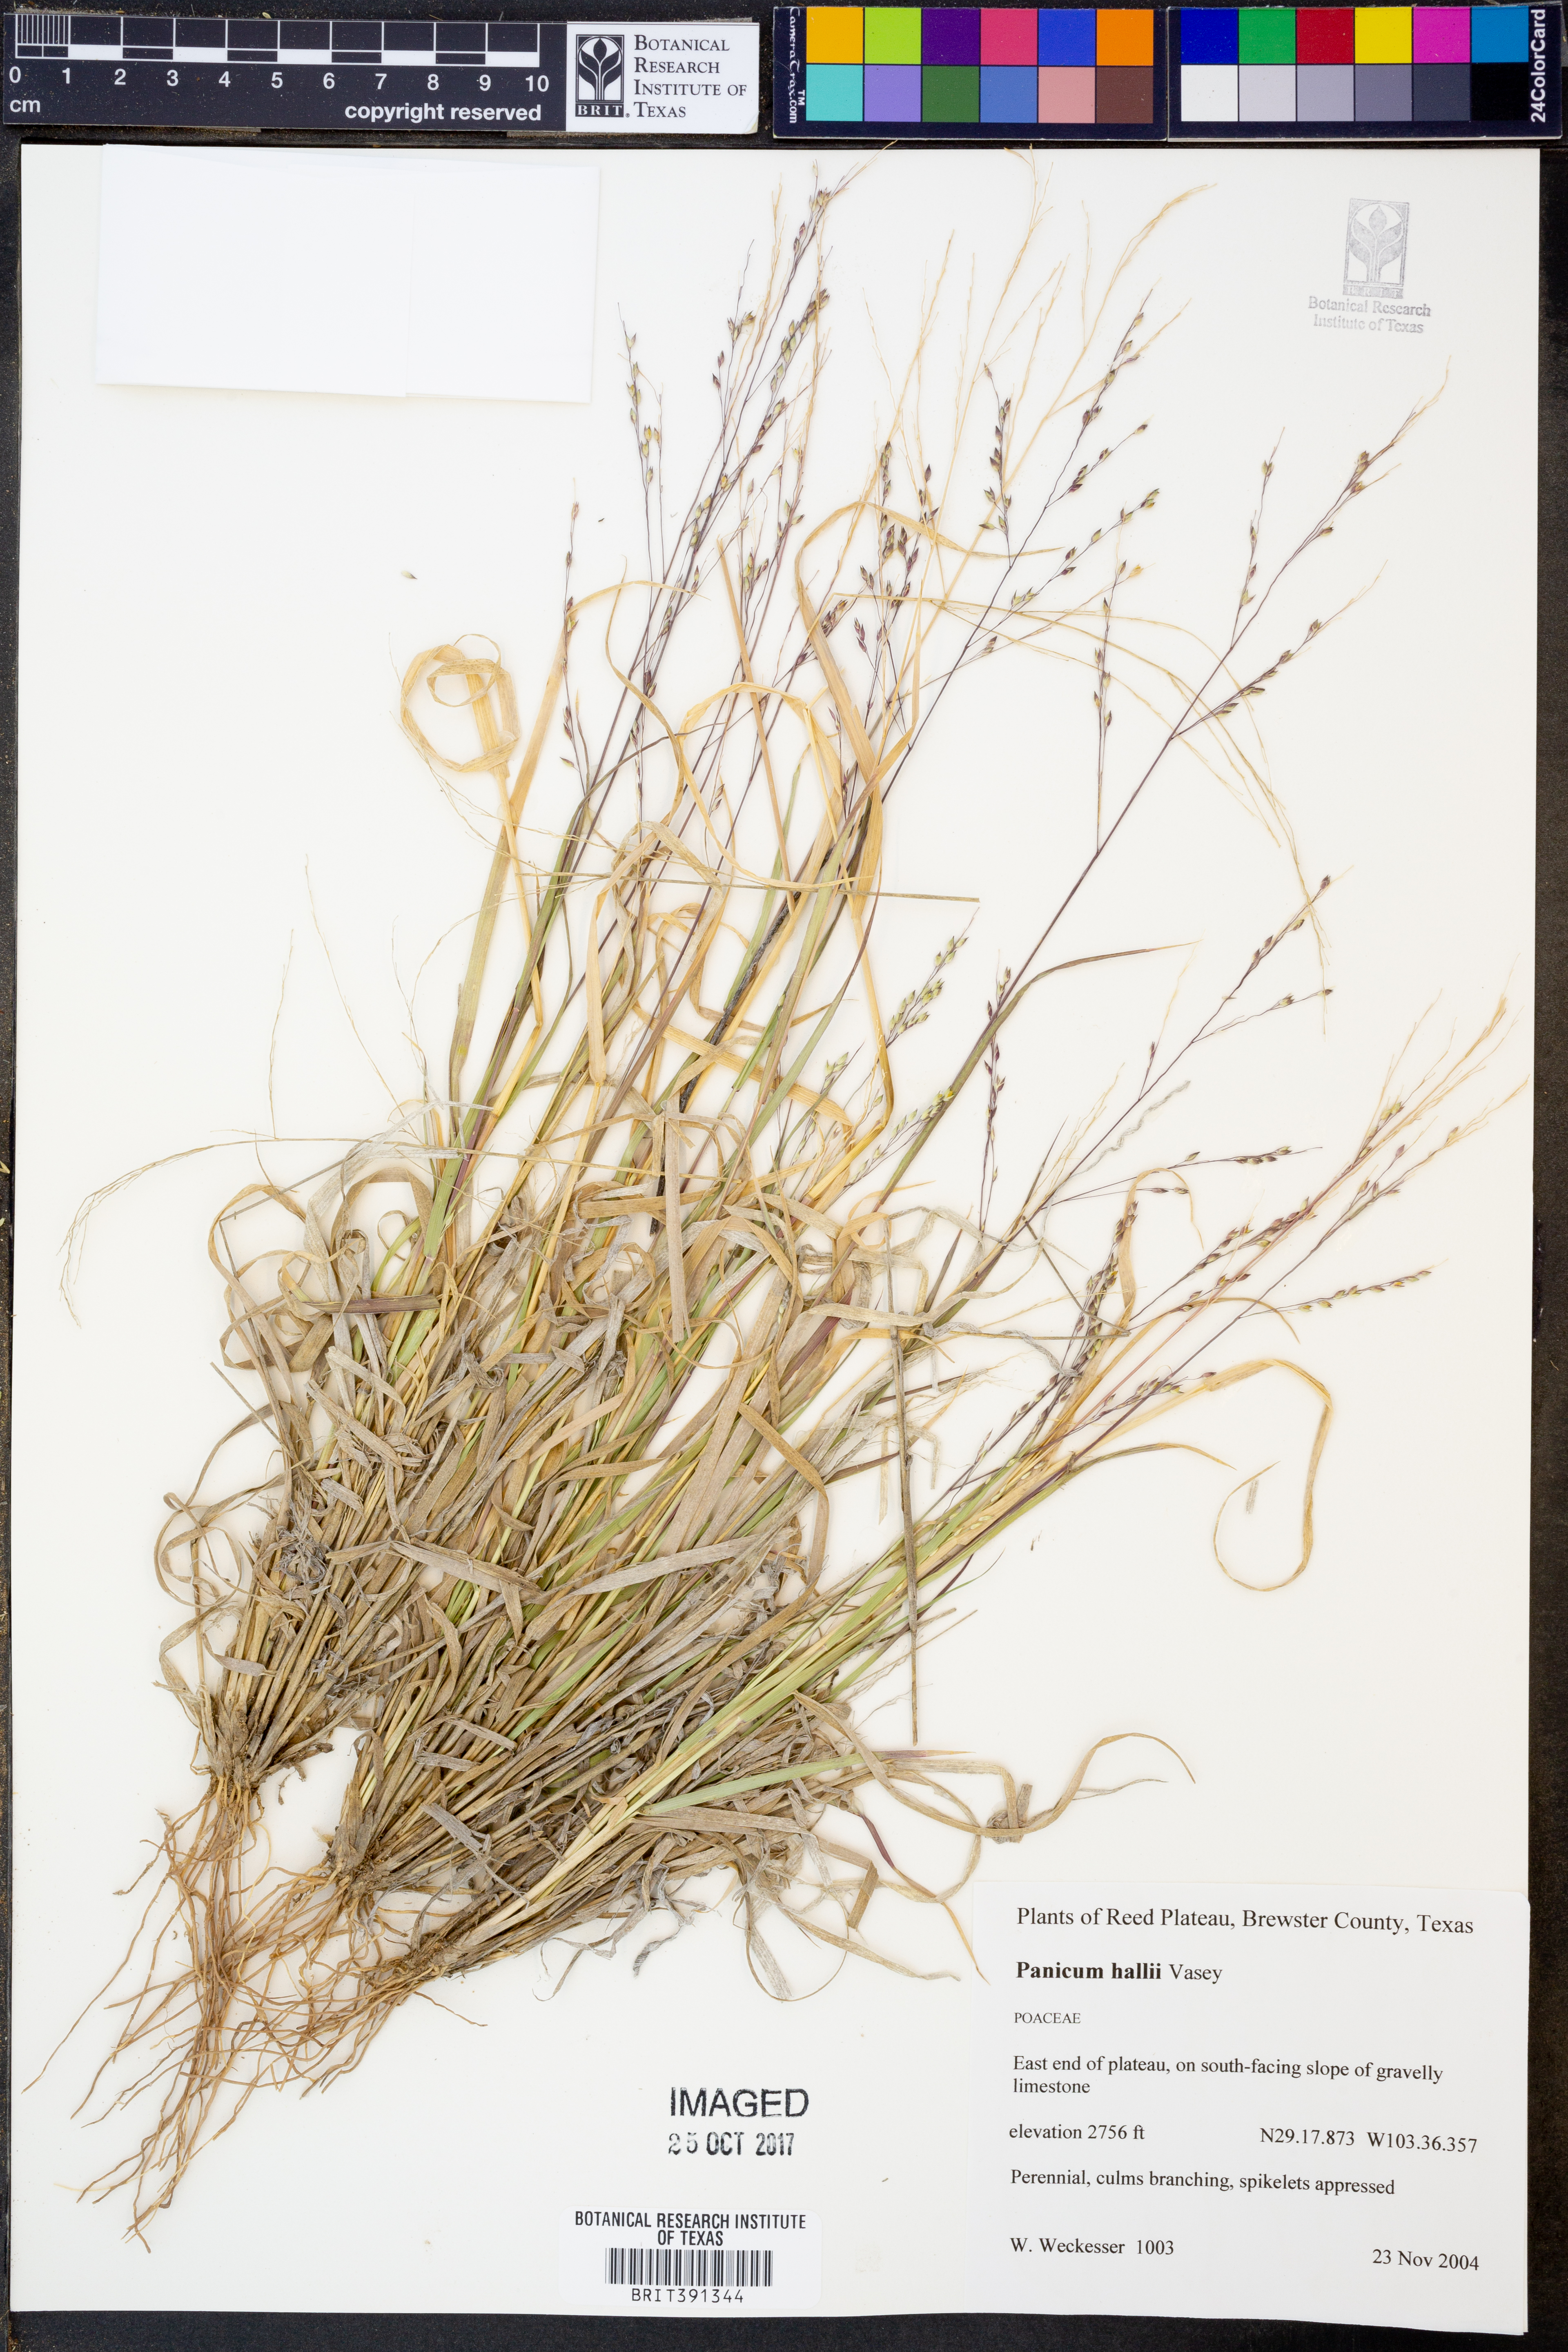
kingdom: Plantae
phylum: Tracheophyta
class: Liliopsida
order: Poales
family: Poaceae
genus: Panicum
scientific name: Panicum hallii
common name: Hall's witchgrass
